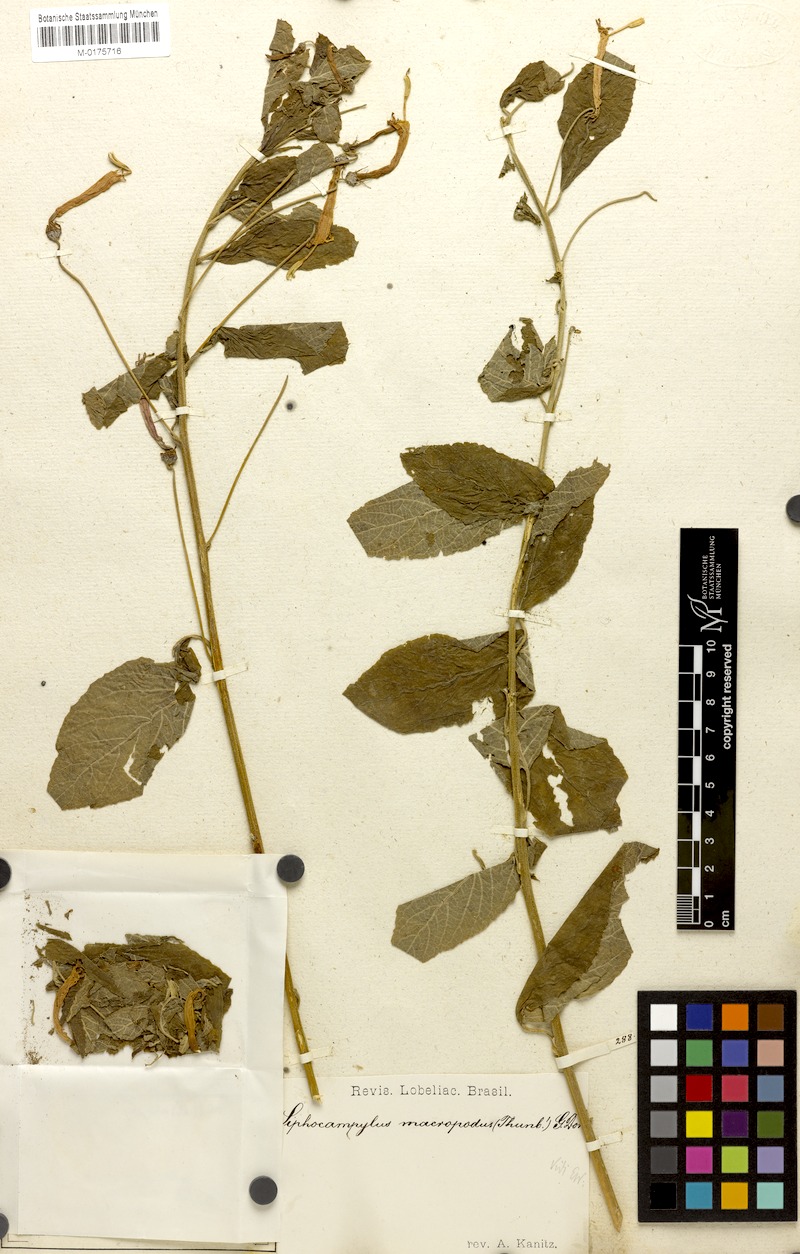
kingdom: Plantae
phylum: Tracheophyta
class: Magnoliopsida
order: Asterales
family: Campanulaceae
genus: Siphocampylus
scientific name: Siphocampylus macropodus
